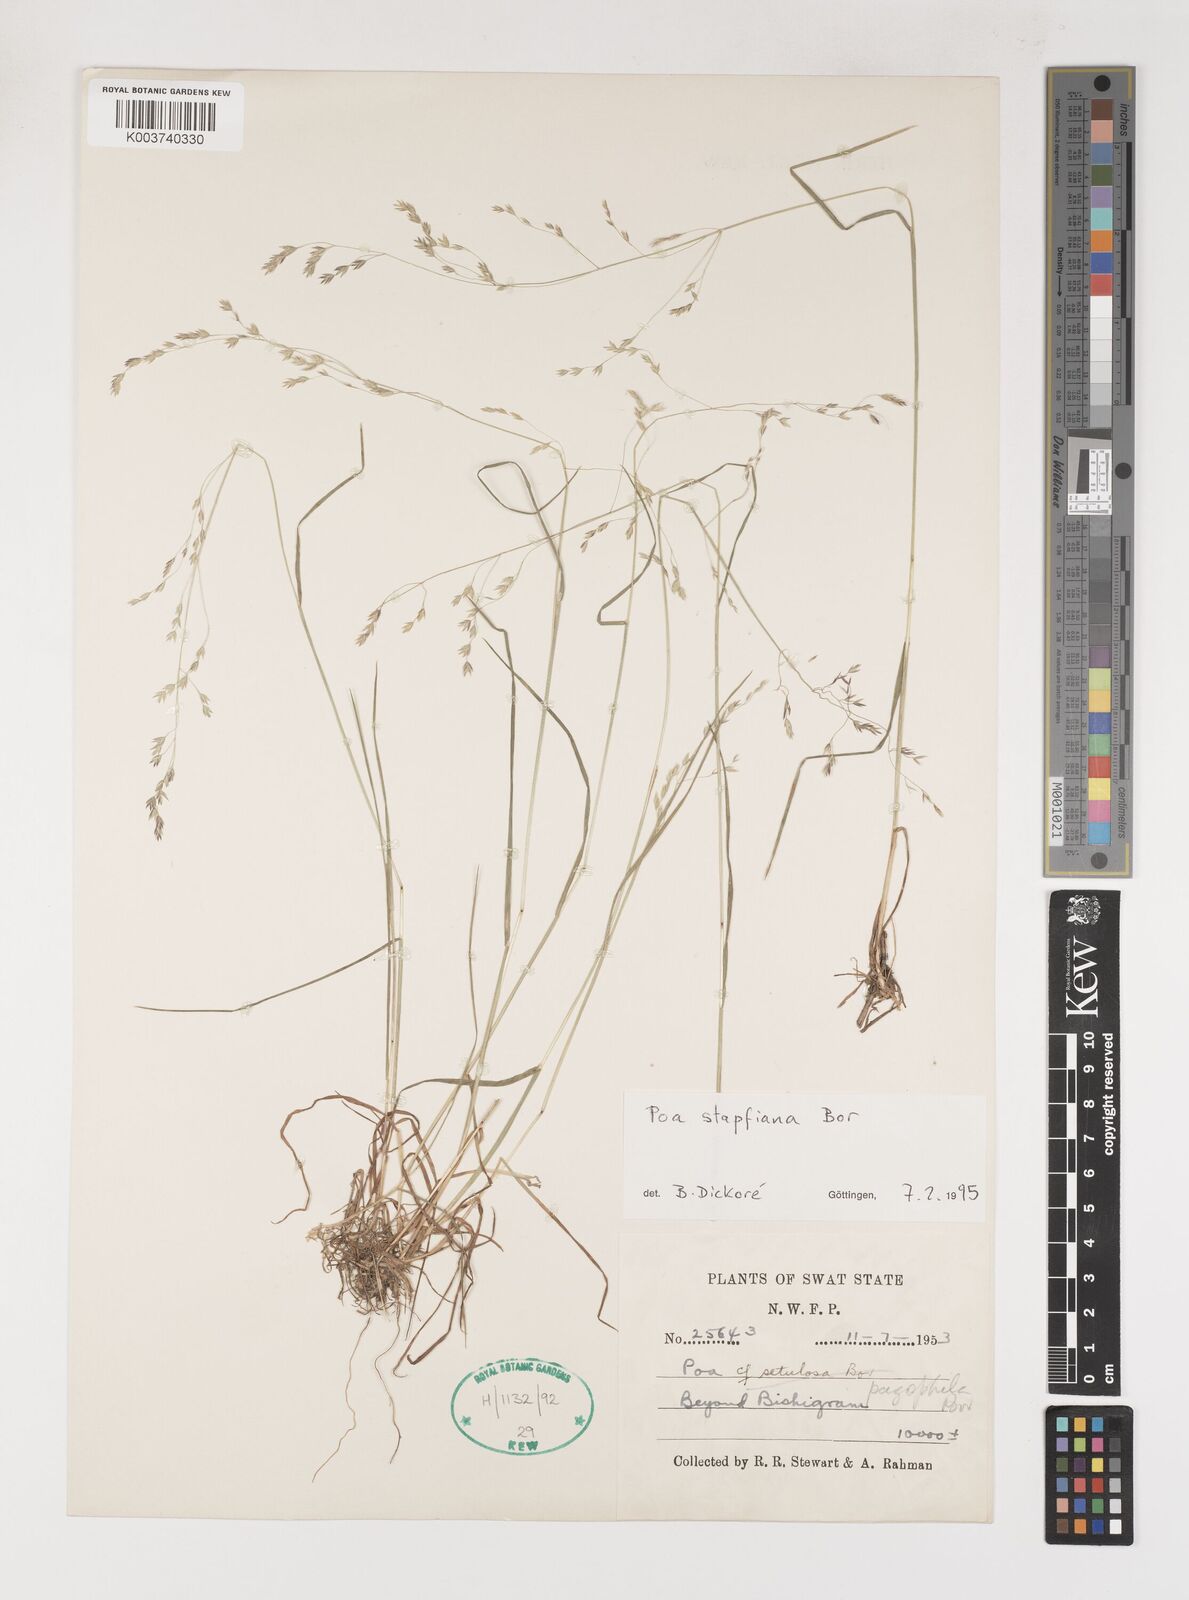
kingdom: Plantae
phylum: Tracheophyta
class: Liliopsida
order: Poales
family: Poaceae
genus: Poa
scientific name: Poa stapfiana
